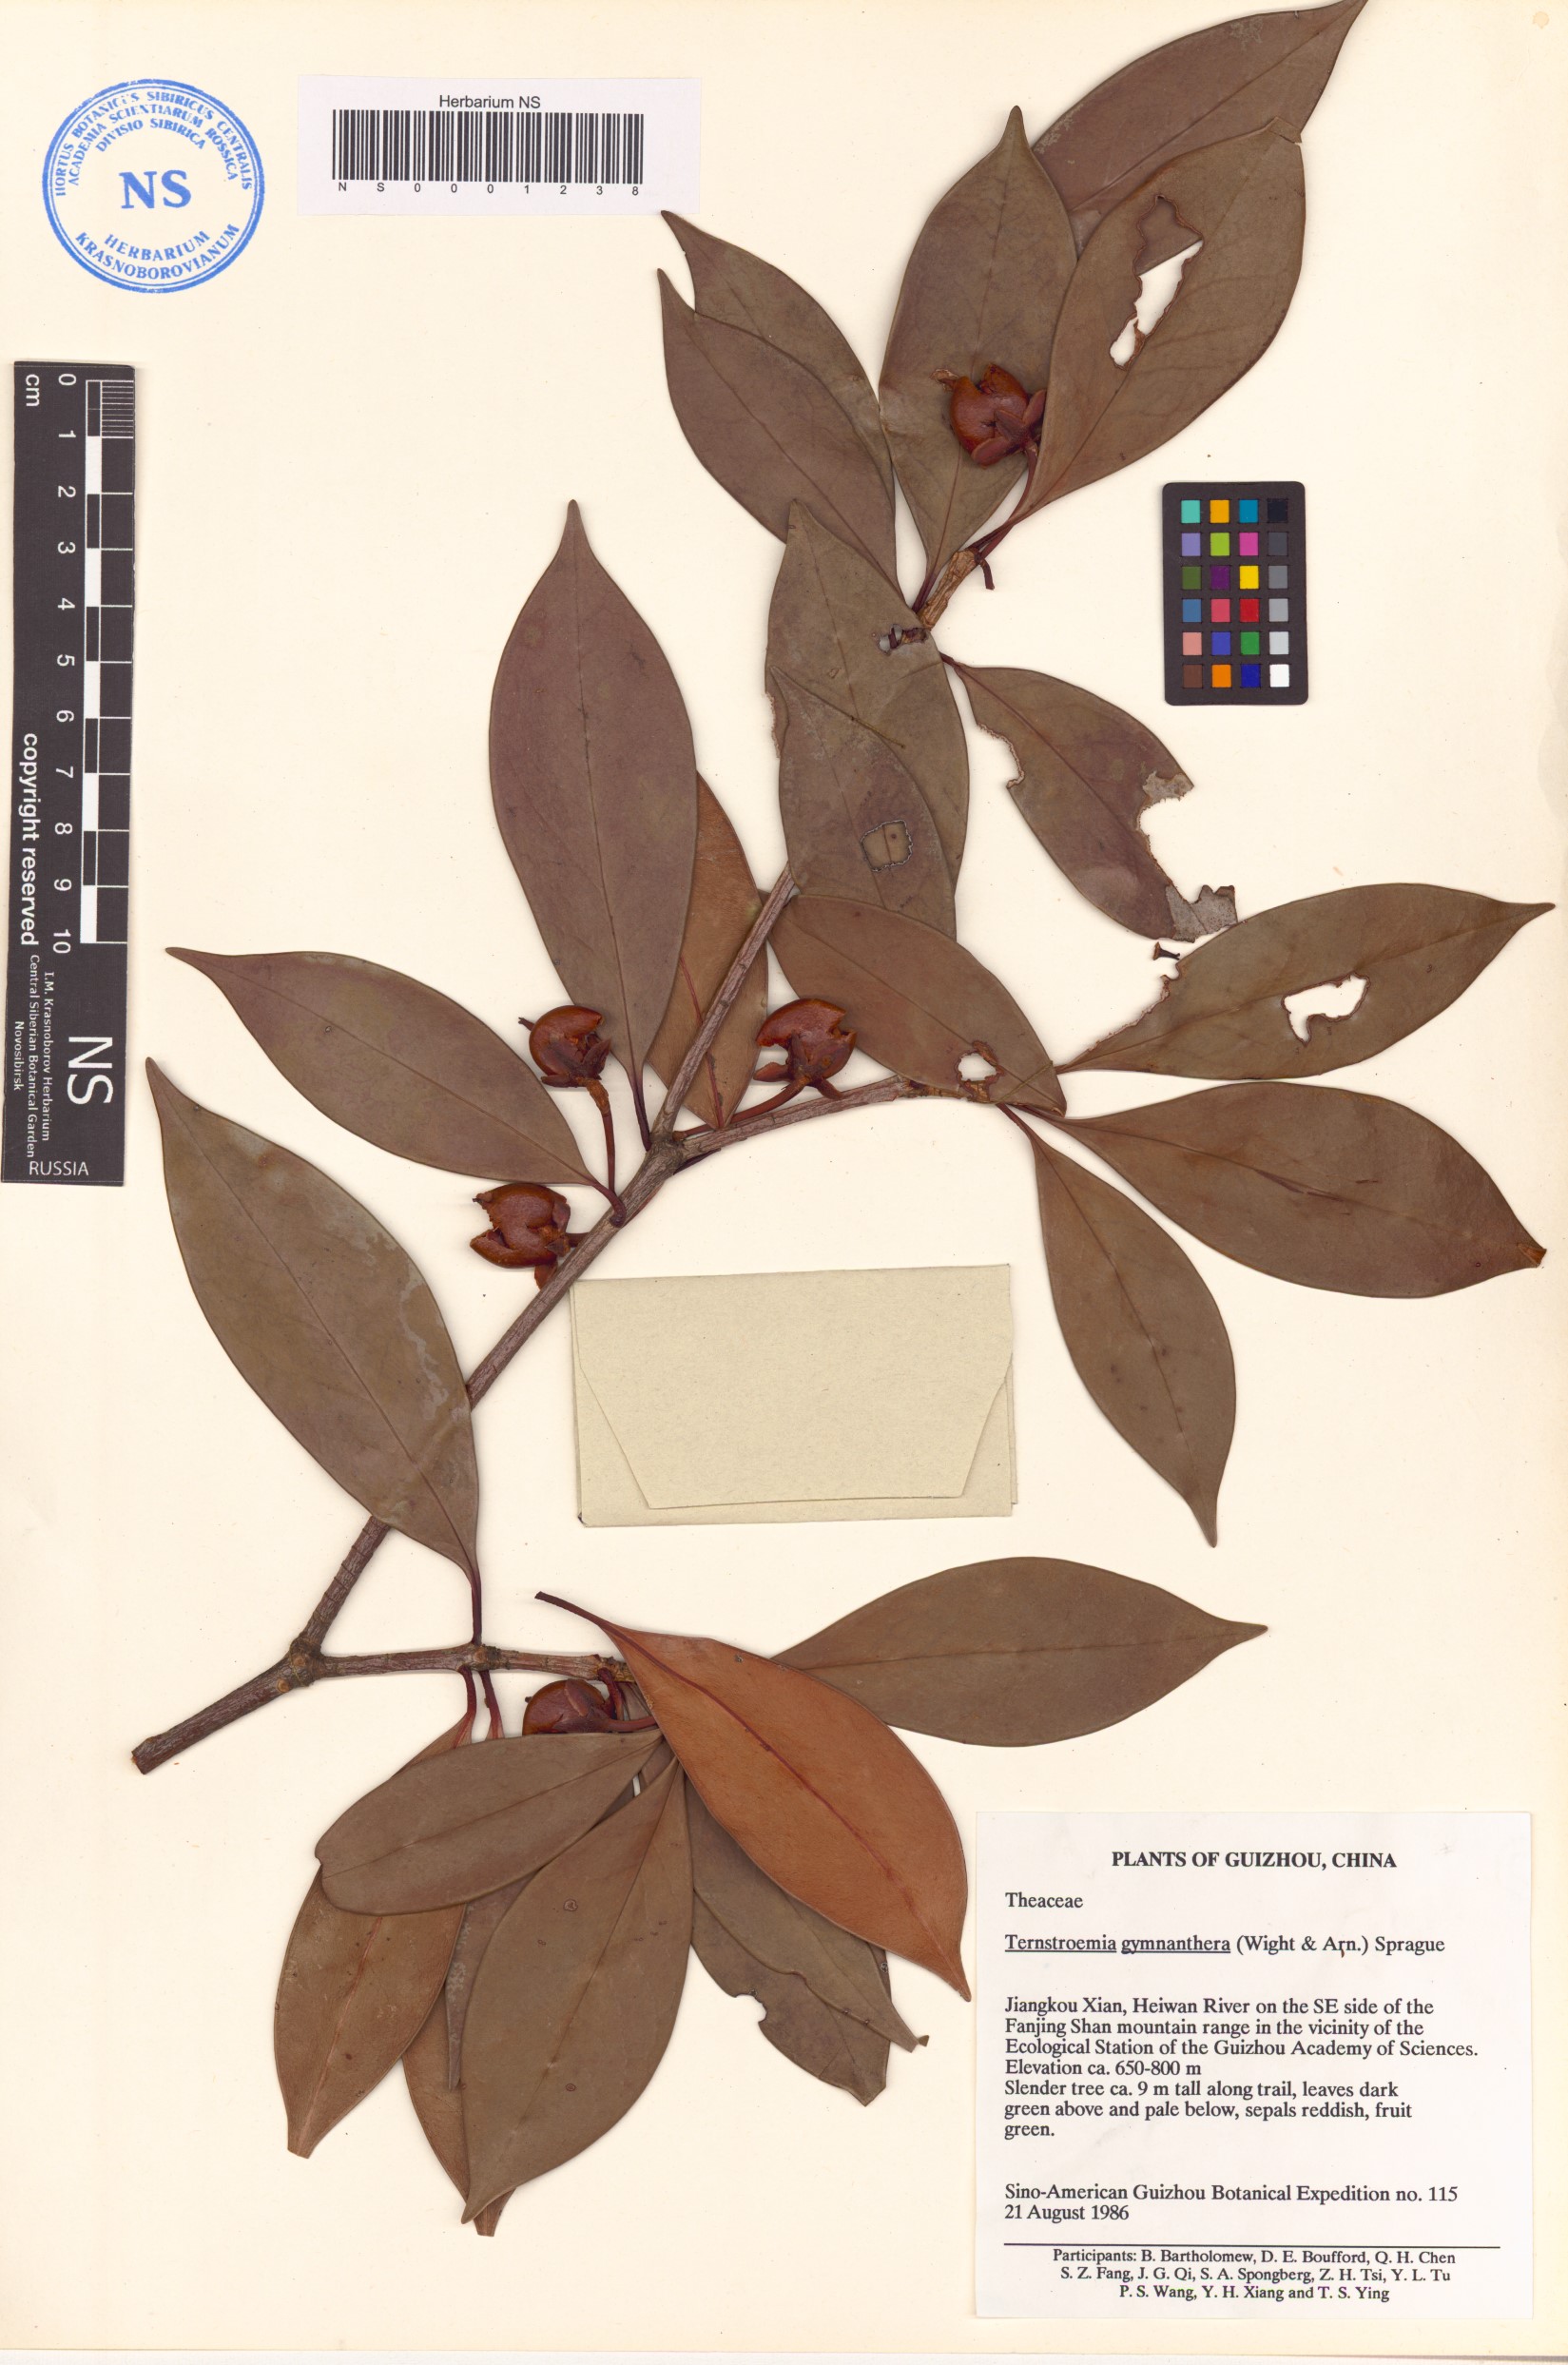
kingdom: Plantae
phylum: Tracheophyta
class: Magnoliopsida
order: Ericales
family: Pentaphylacaceae
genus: Ternstroemia
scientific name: Ternstroemia gymnanthera
